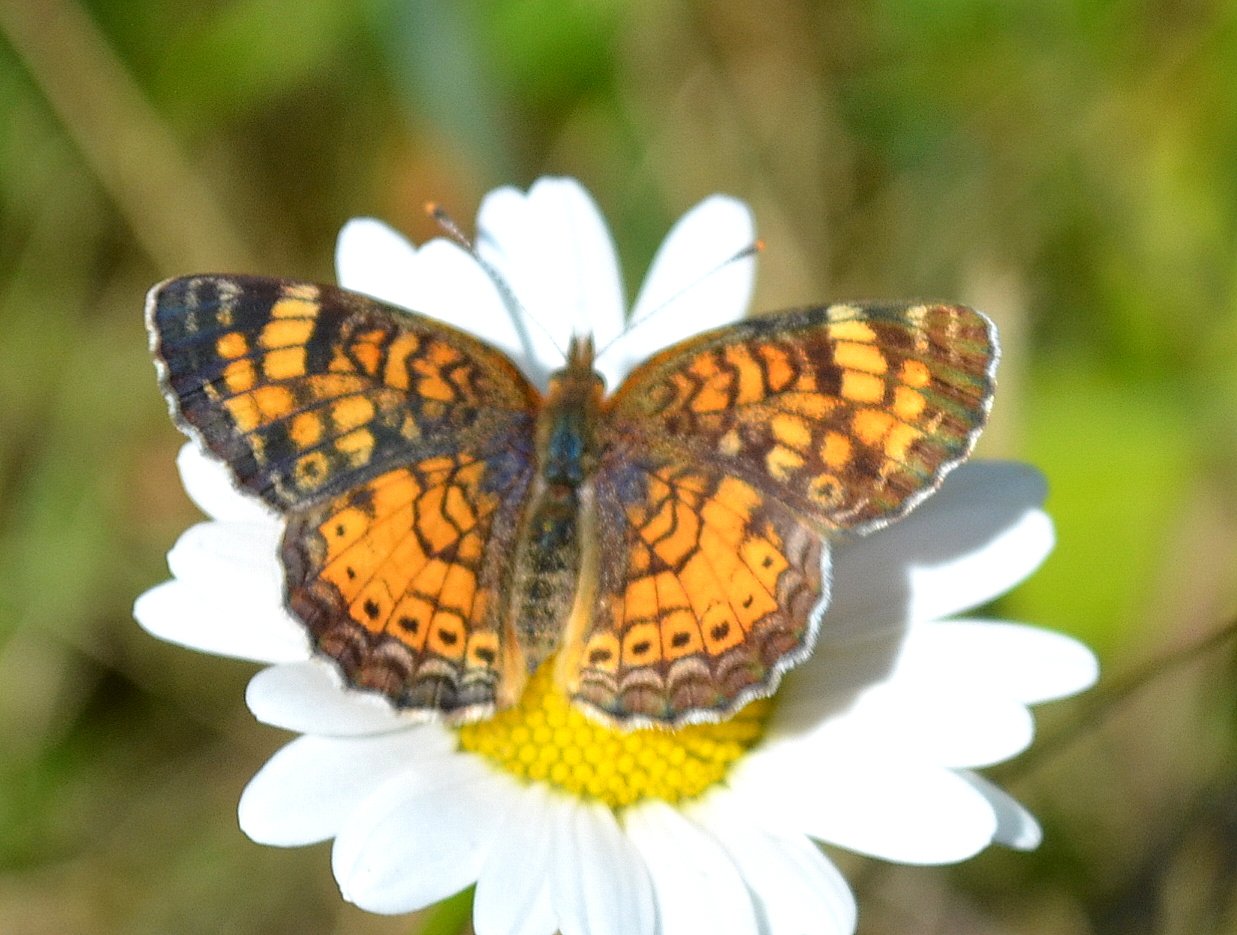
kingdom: Animalia
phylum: Arthropoda
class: Insecta
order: Lepidoptera
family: Nymphalidae
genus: Phyciodes
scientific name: Phyciodes tharos
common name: Northern Crescent
